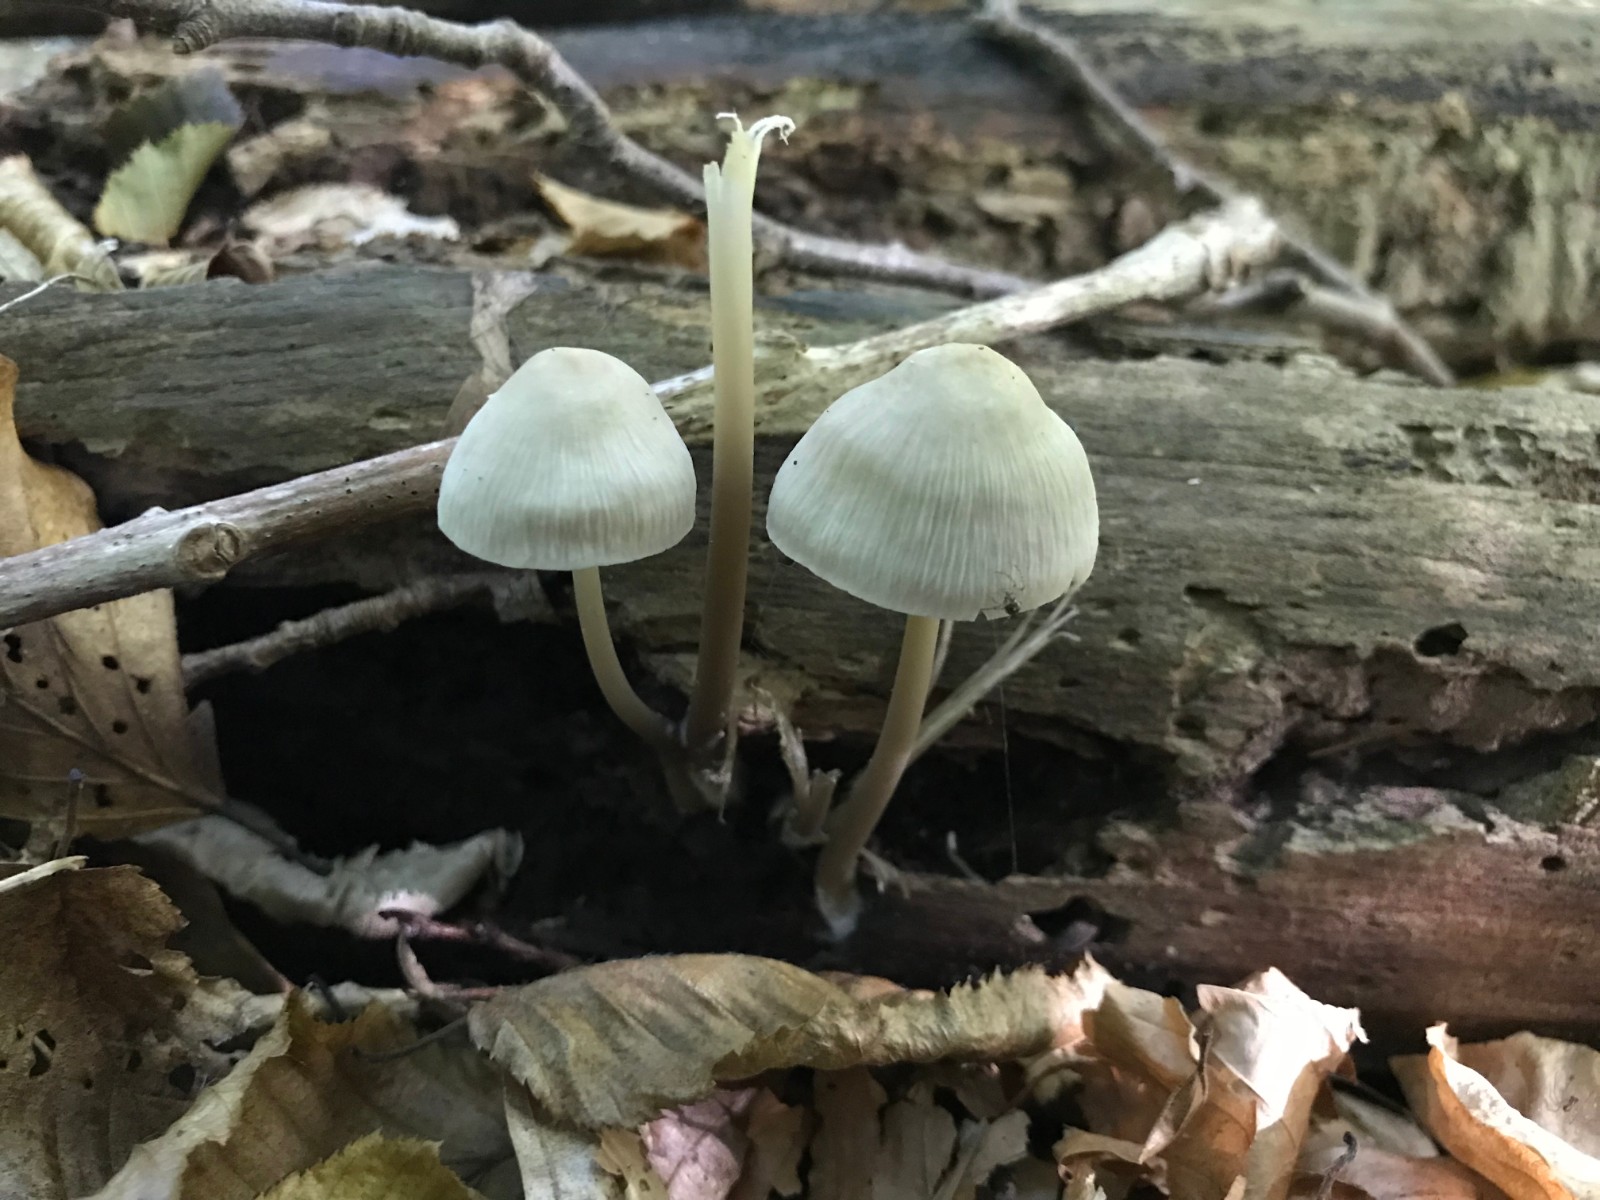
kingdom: Fungi
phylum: Basidiomycota
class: Agaricomycetes
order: Agaricales
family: Mycenaceae
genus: Mycena
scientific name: Mycena galericulata
